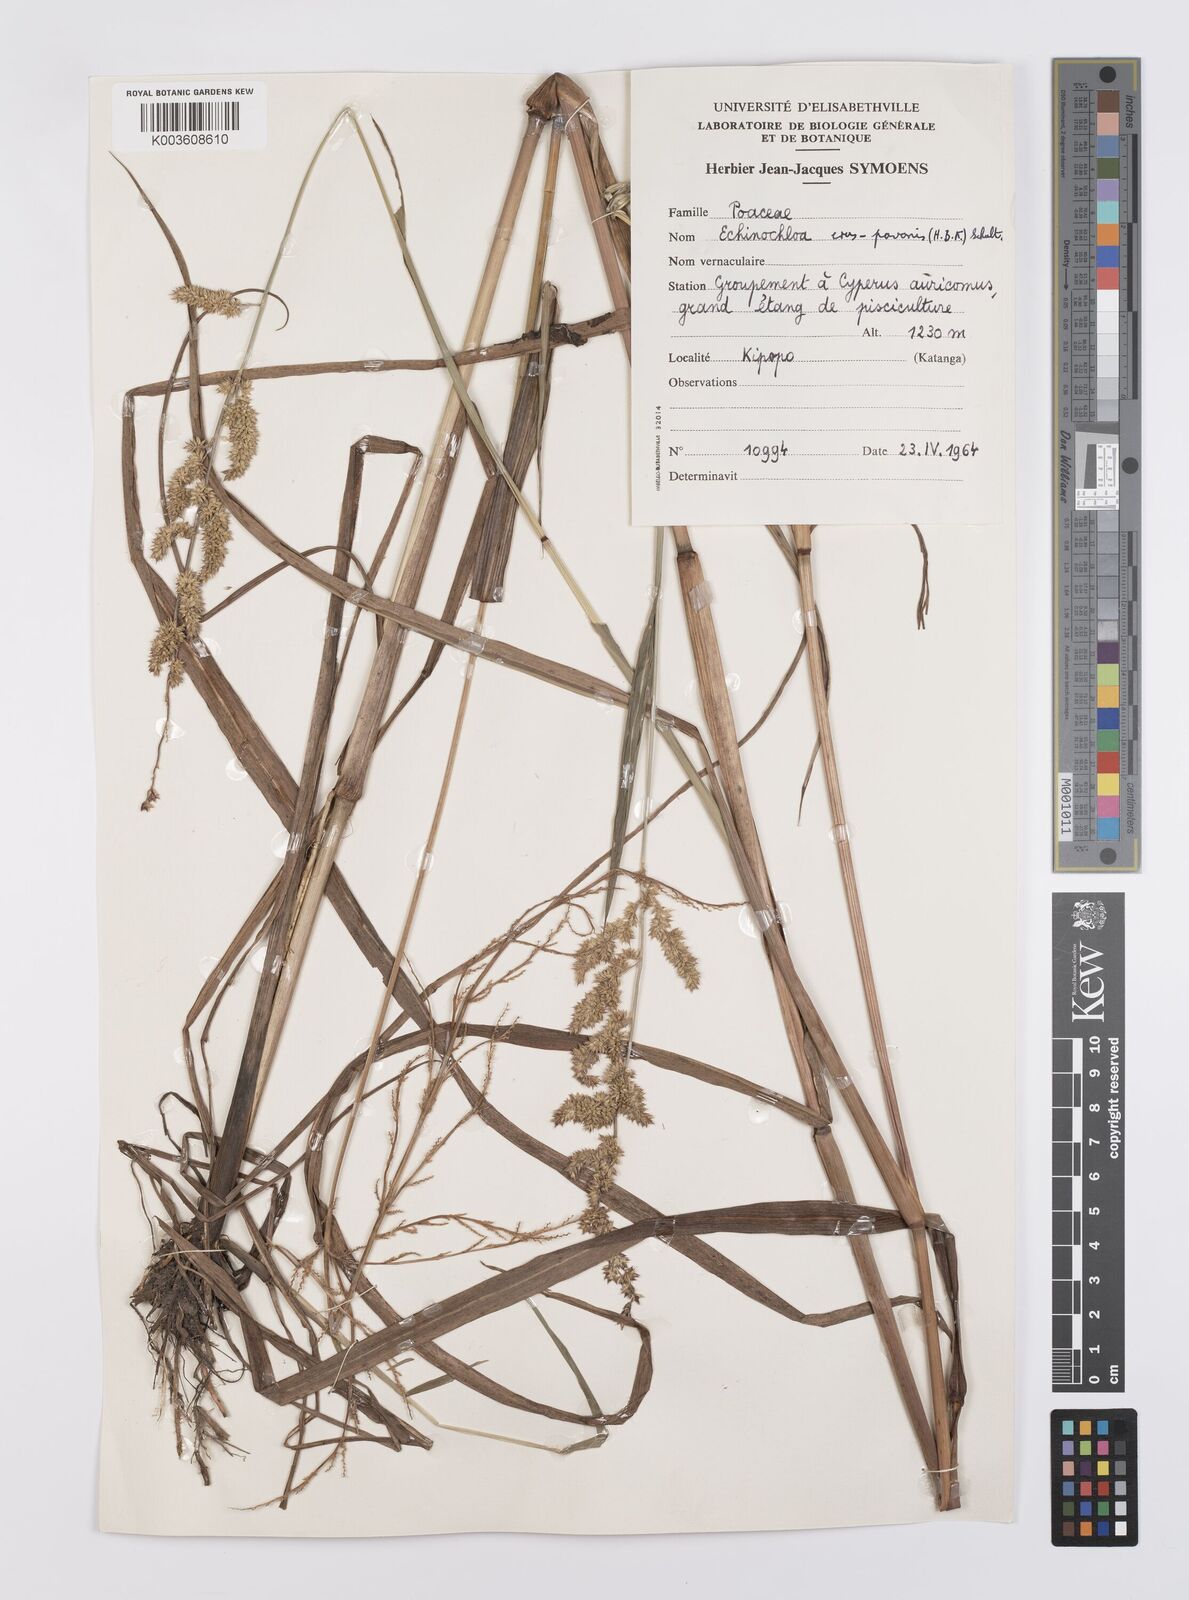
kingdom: Plantae
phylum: Tracheophyta
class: Liliopsida
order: Poales
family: Poaceae
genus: Echinochloa
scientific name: Echinochloa crus-pavonis
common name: Gulf cockspur grass
